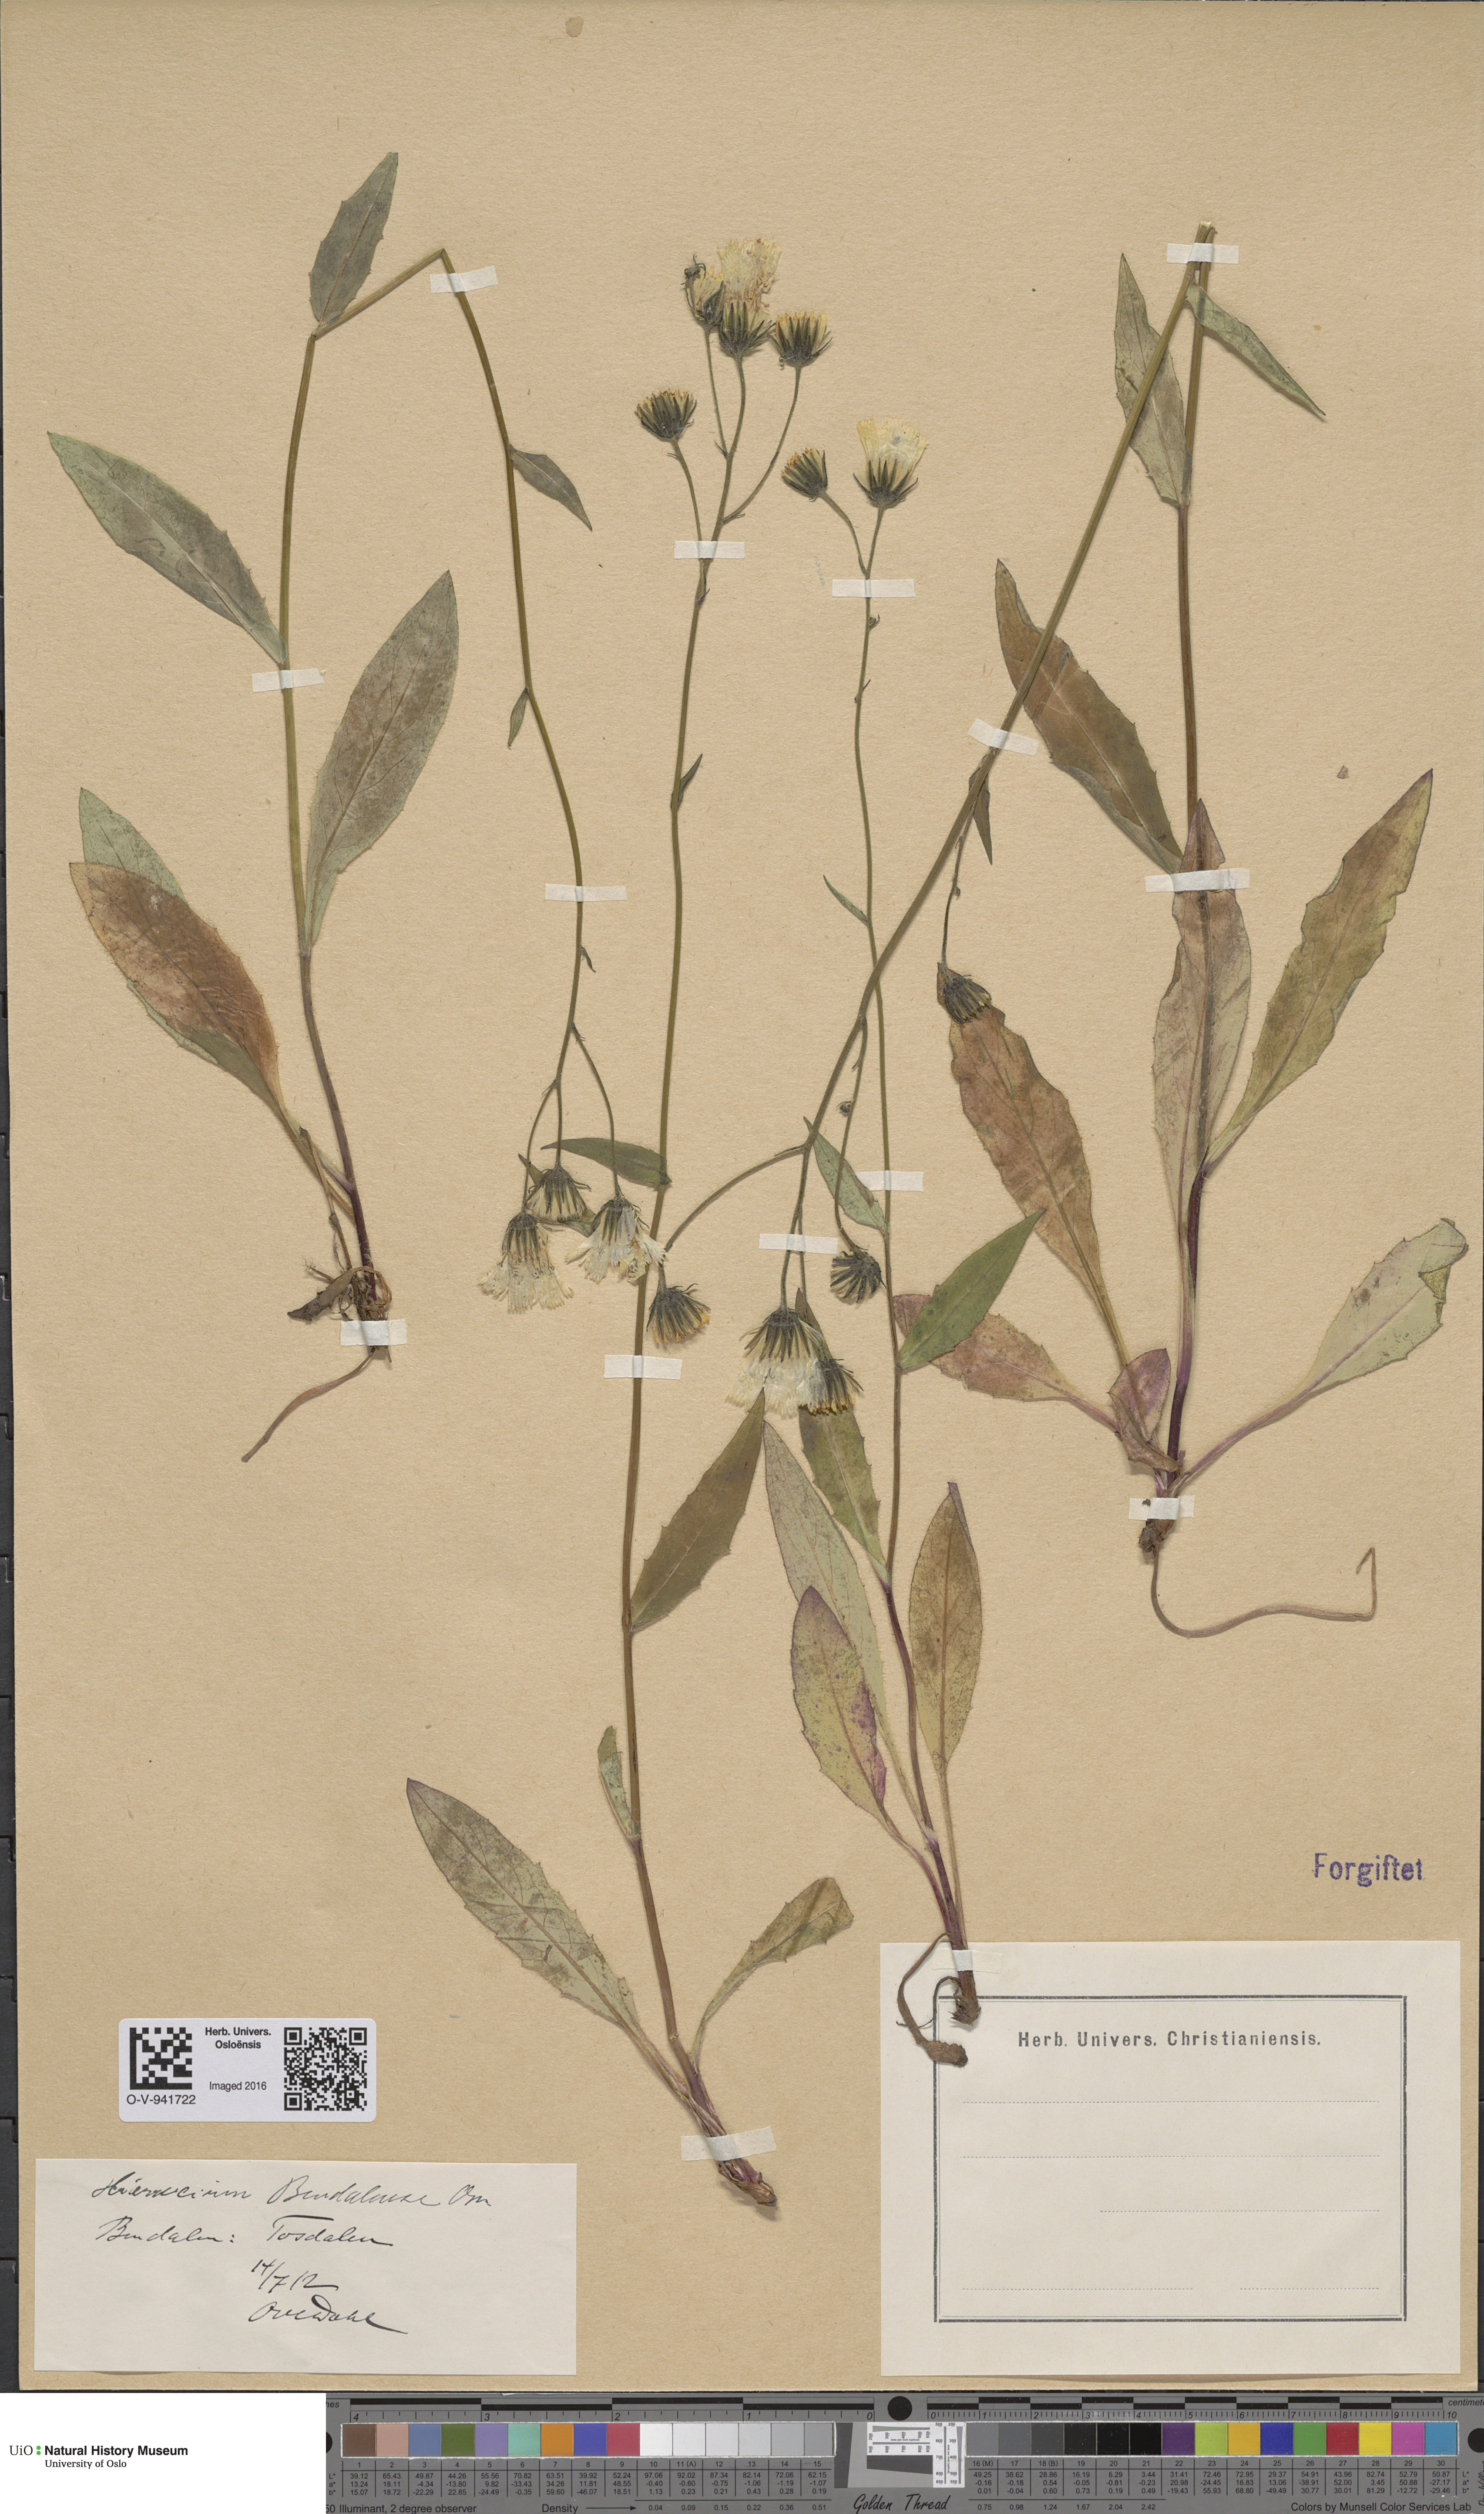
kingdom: Plantae
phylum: Tracheophyta
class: Magnoliopsida
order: Asterales
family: Asteraceae
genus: Hieracium
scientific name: Hieracium bindalense
